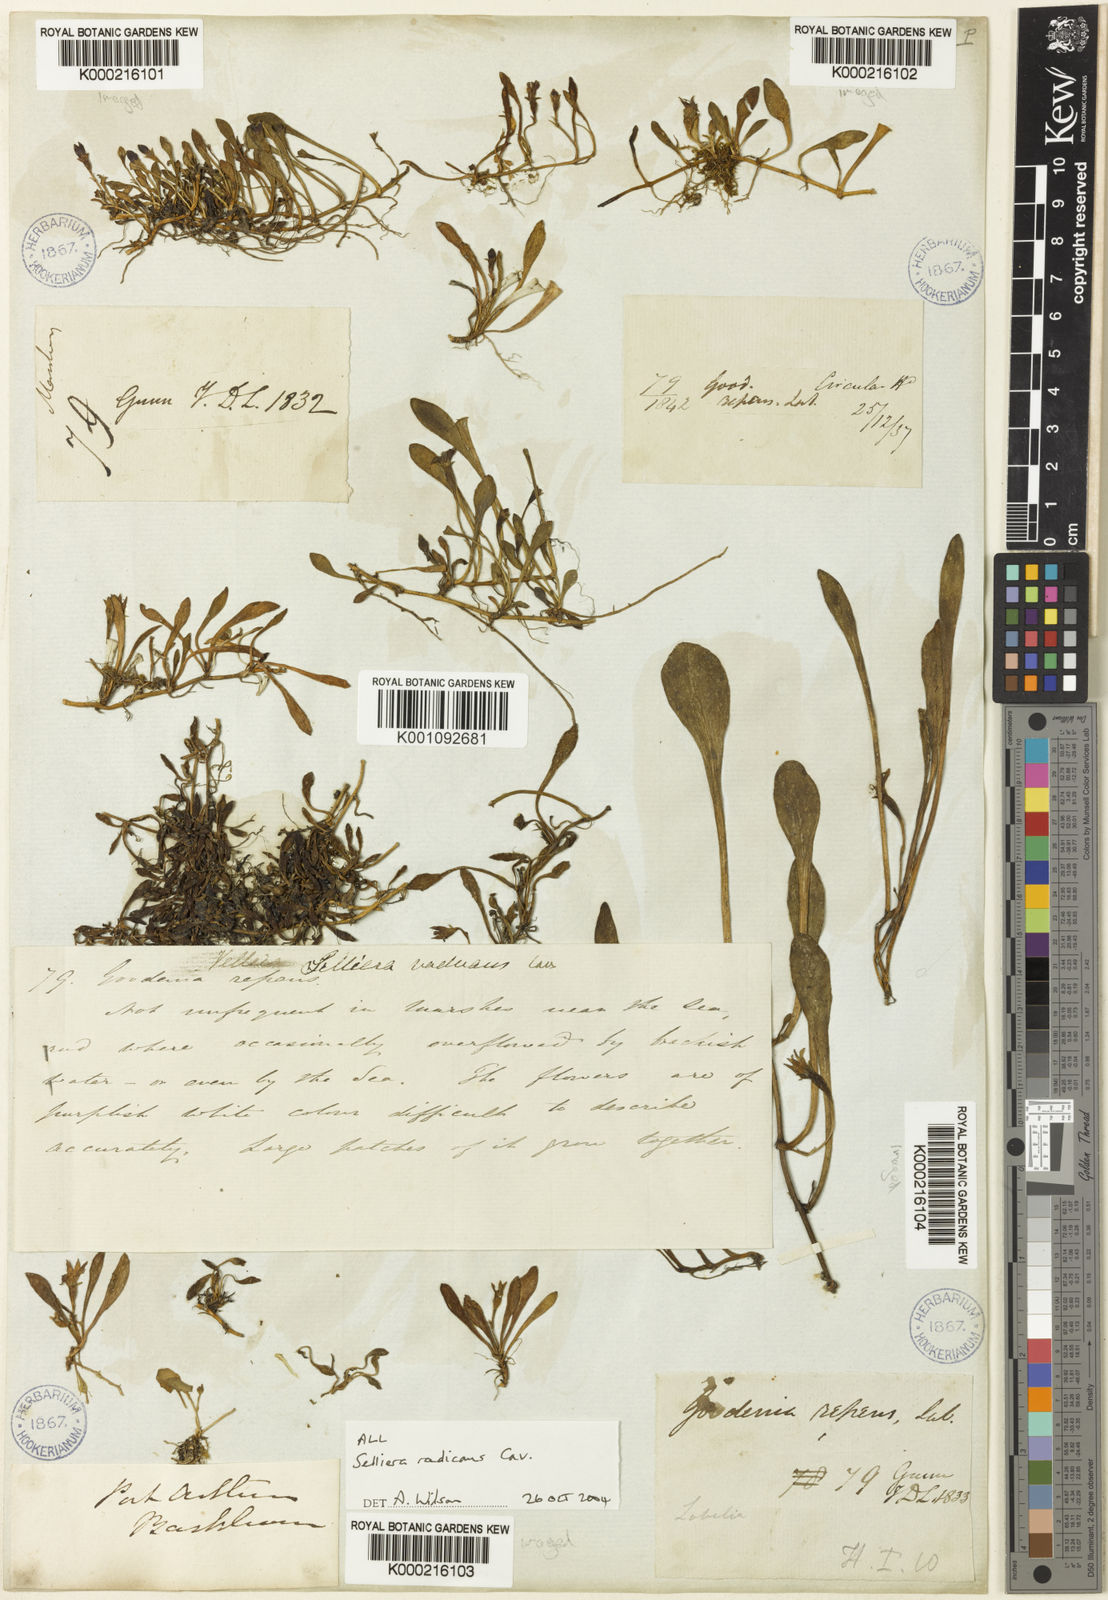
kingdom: Plantae
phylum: Tracheophyta
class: Magnoliopsida
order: Asterales
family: Goodeniaceae
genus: Goodenia
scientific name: Goodenia radicans
